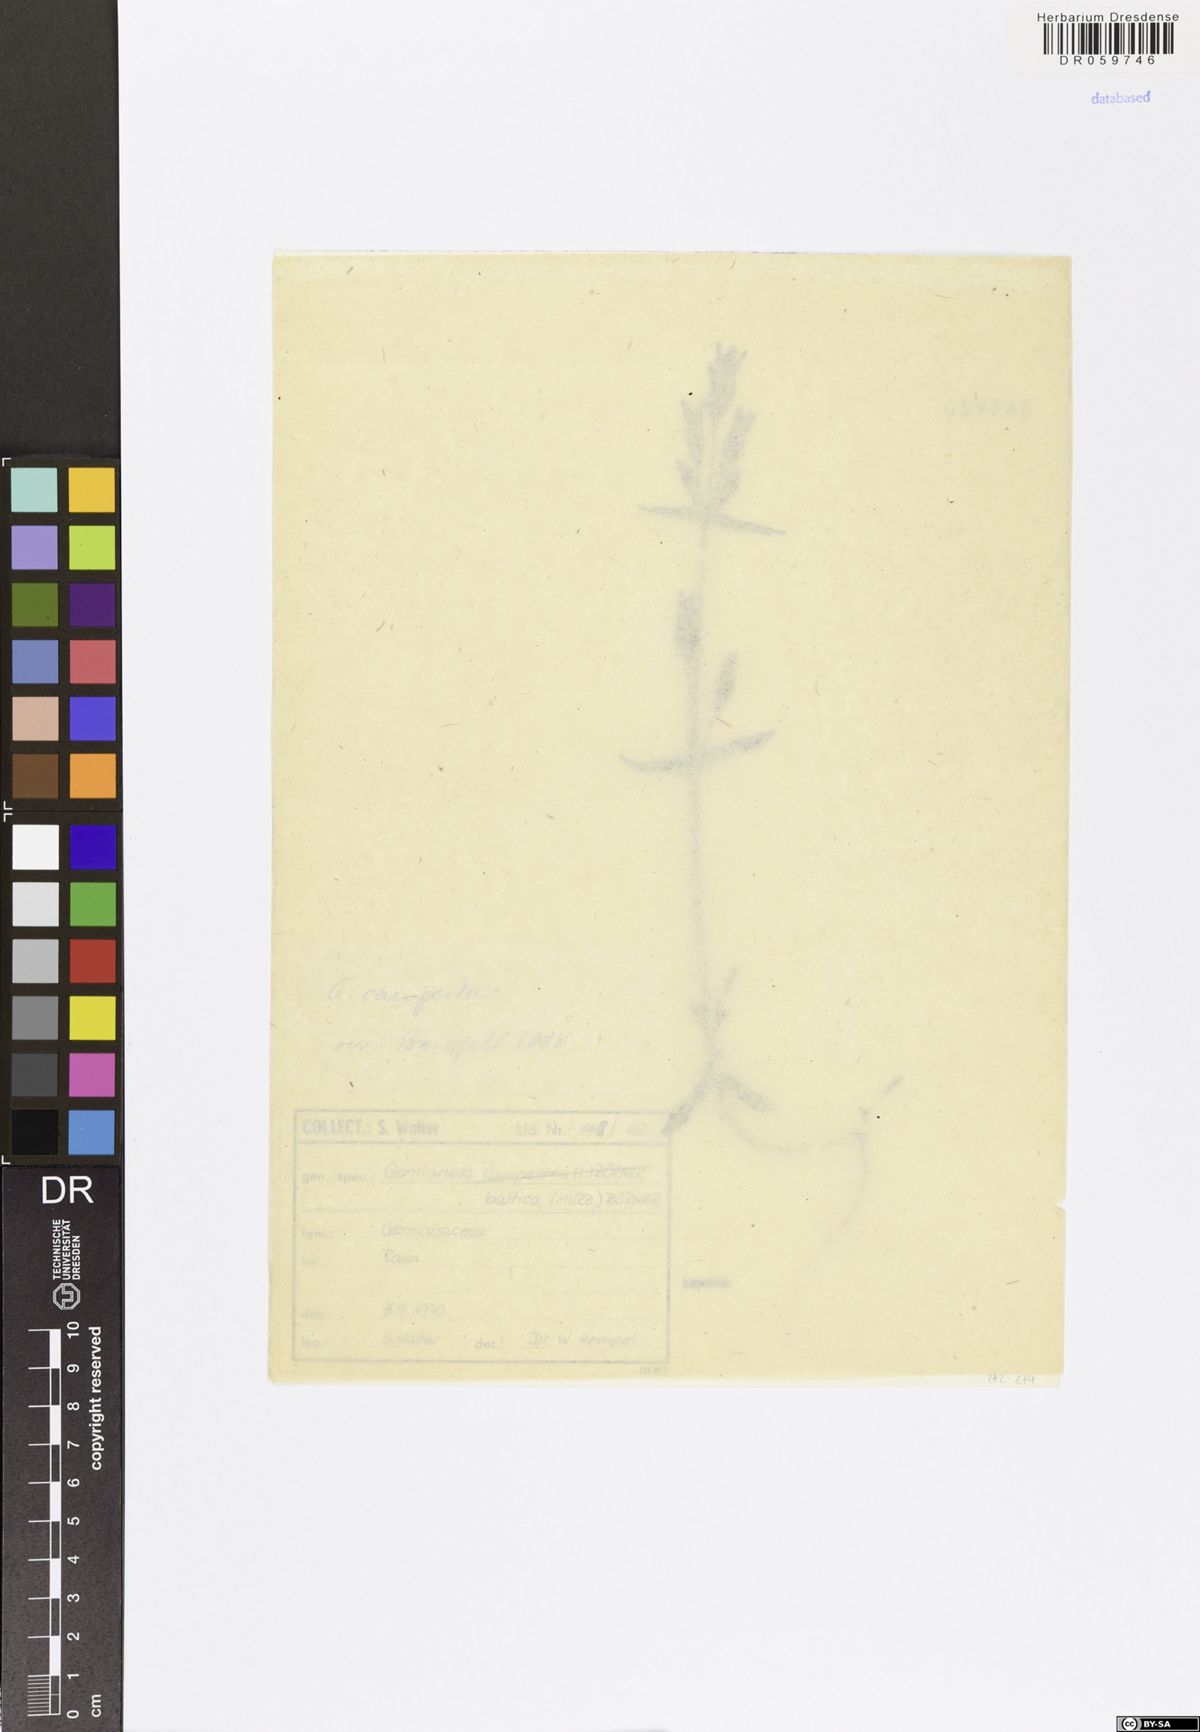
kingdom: Plantae
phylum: Tracheophyta
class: Magnoliopsida
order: Gentianales
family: Gentianaceae
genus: Gentianella
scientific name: Gentianella campestris
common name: Field gentian
